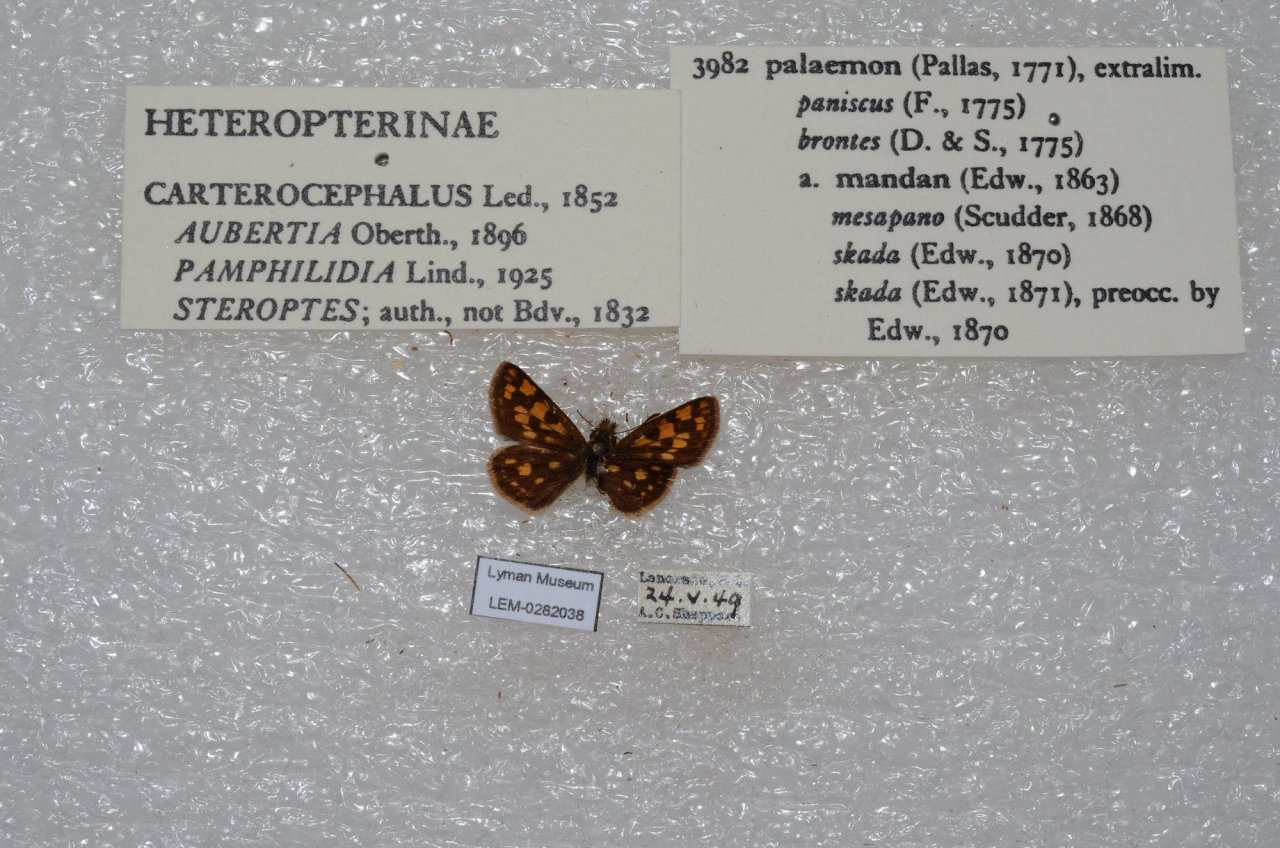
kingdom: Animalia
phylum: Arthropoda
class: Insecta
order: Lepidoptera
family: Hesperiidae
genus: Carterocephalus
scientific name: Carterocephalus palaemon
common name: Chequered Skipper
